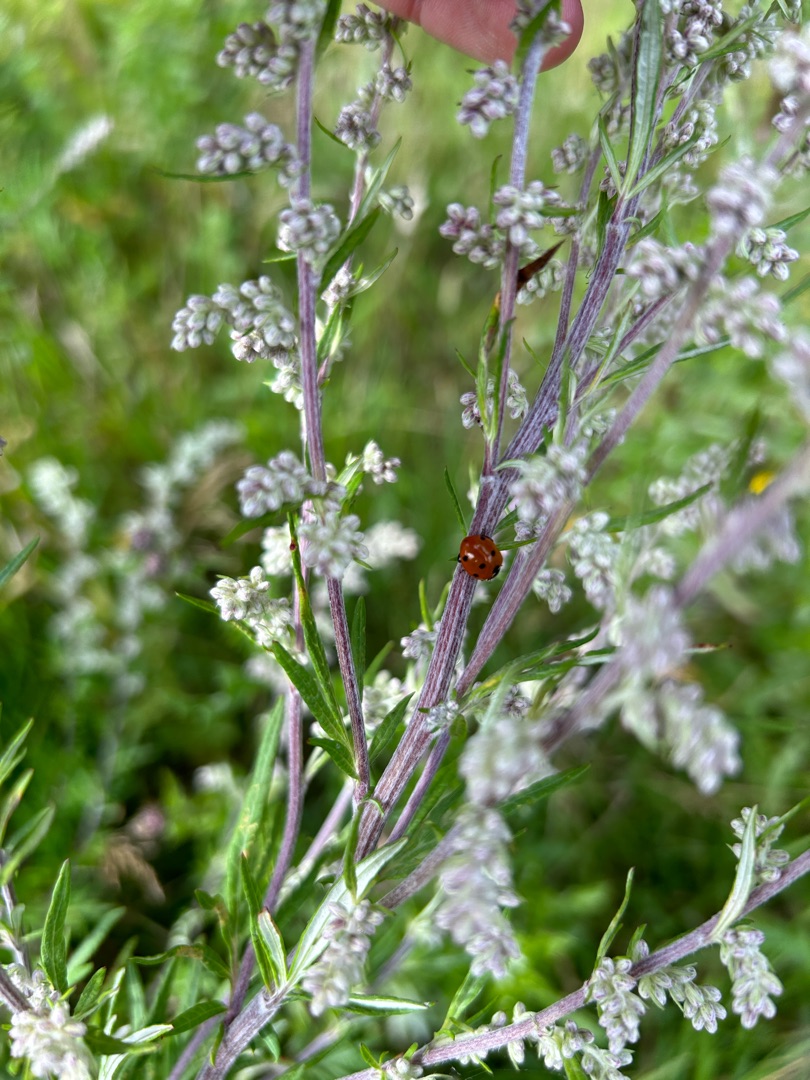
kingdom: Animalia
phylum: Arthropoda
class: Insecta
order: Coleoptera
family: Coccinellidae
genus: Coccinella
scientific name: Coccinella septempunctata
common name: Syvplettet mariehøne
